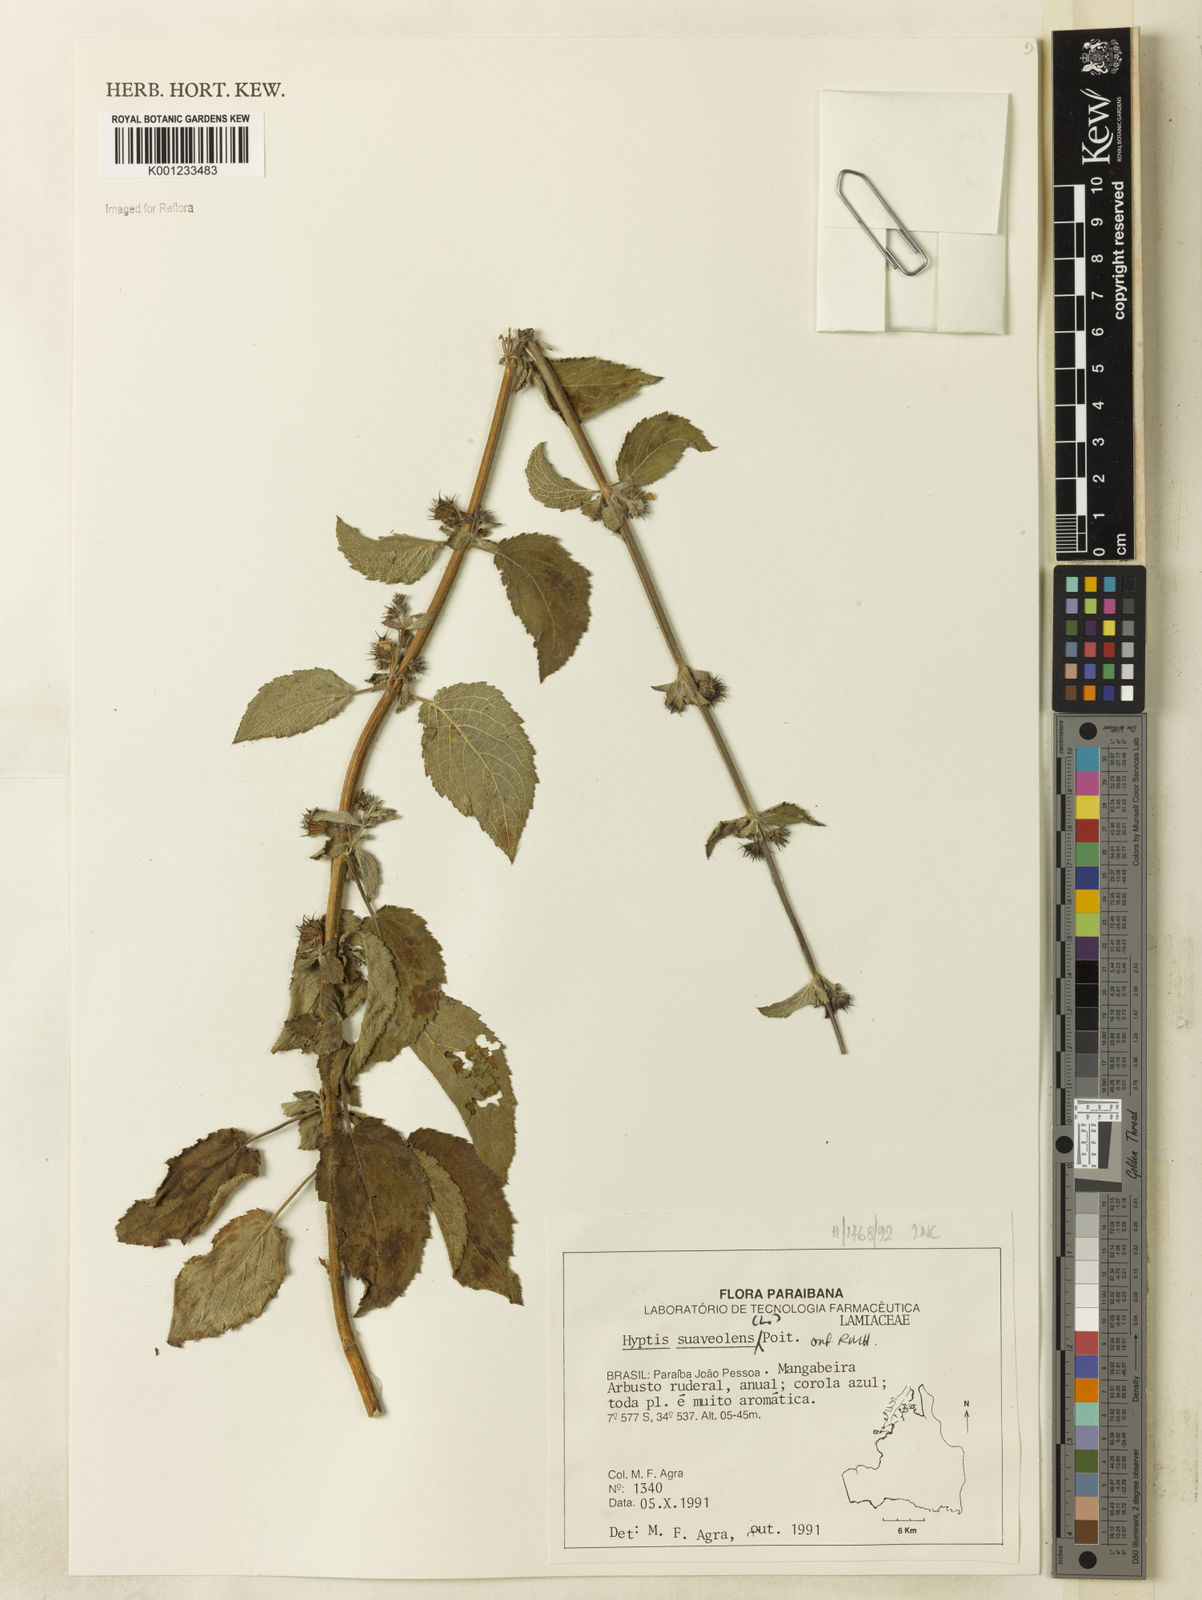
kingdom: Plantae
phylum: Tracheophyta
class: Magnoliopsida
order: Lamiales
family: Lamiaceae
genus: Mesosphaerum
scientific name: Mesosphaerum suaveolens
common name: Pignut
